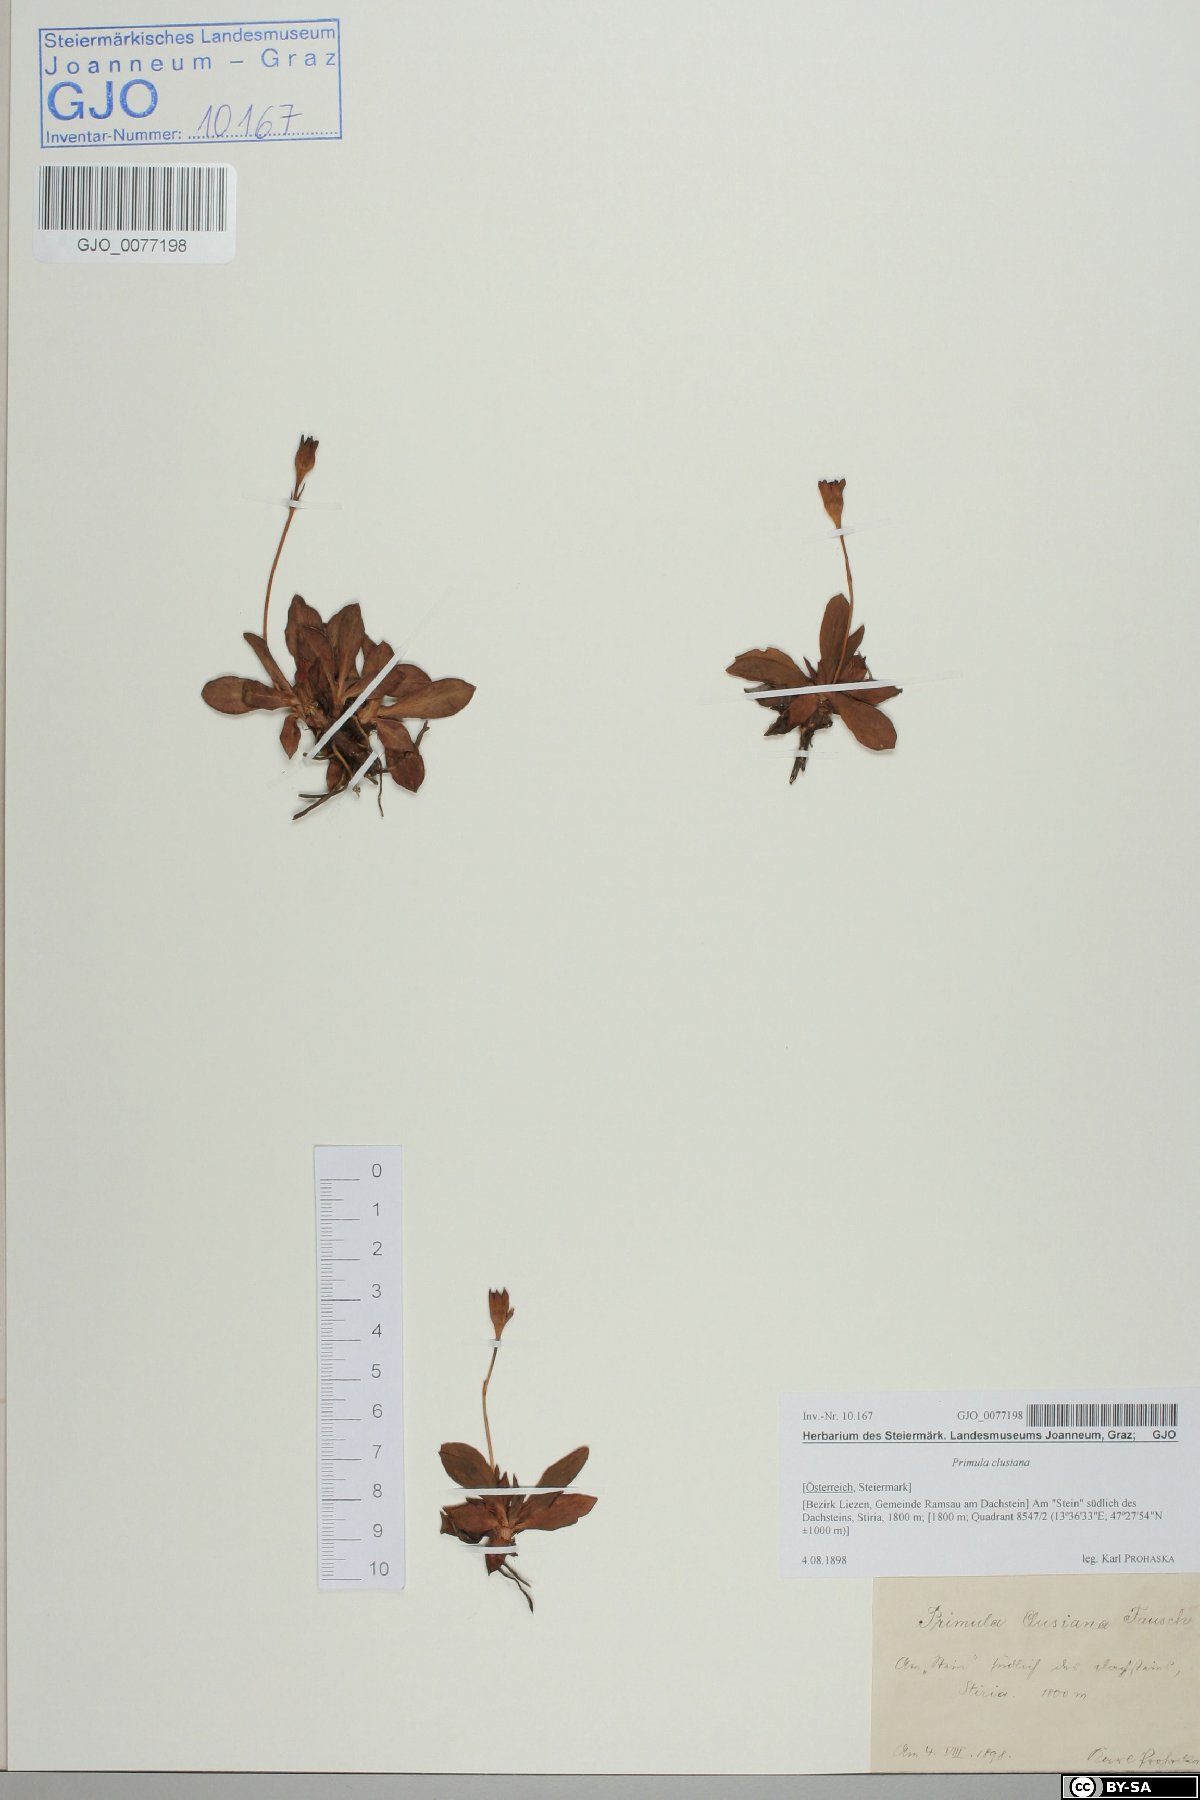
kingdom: Plantae
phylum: Tracheophyta
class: Magnoliopsida
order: Ericales
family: Primulaceae
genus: Primula
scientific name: Primula clusiana
